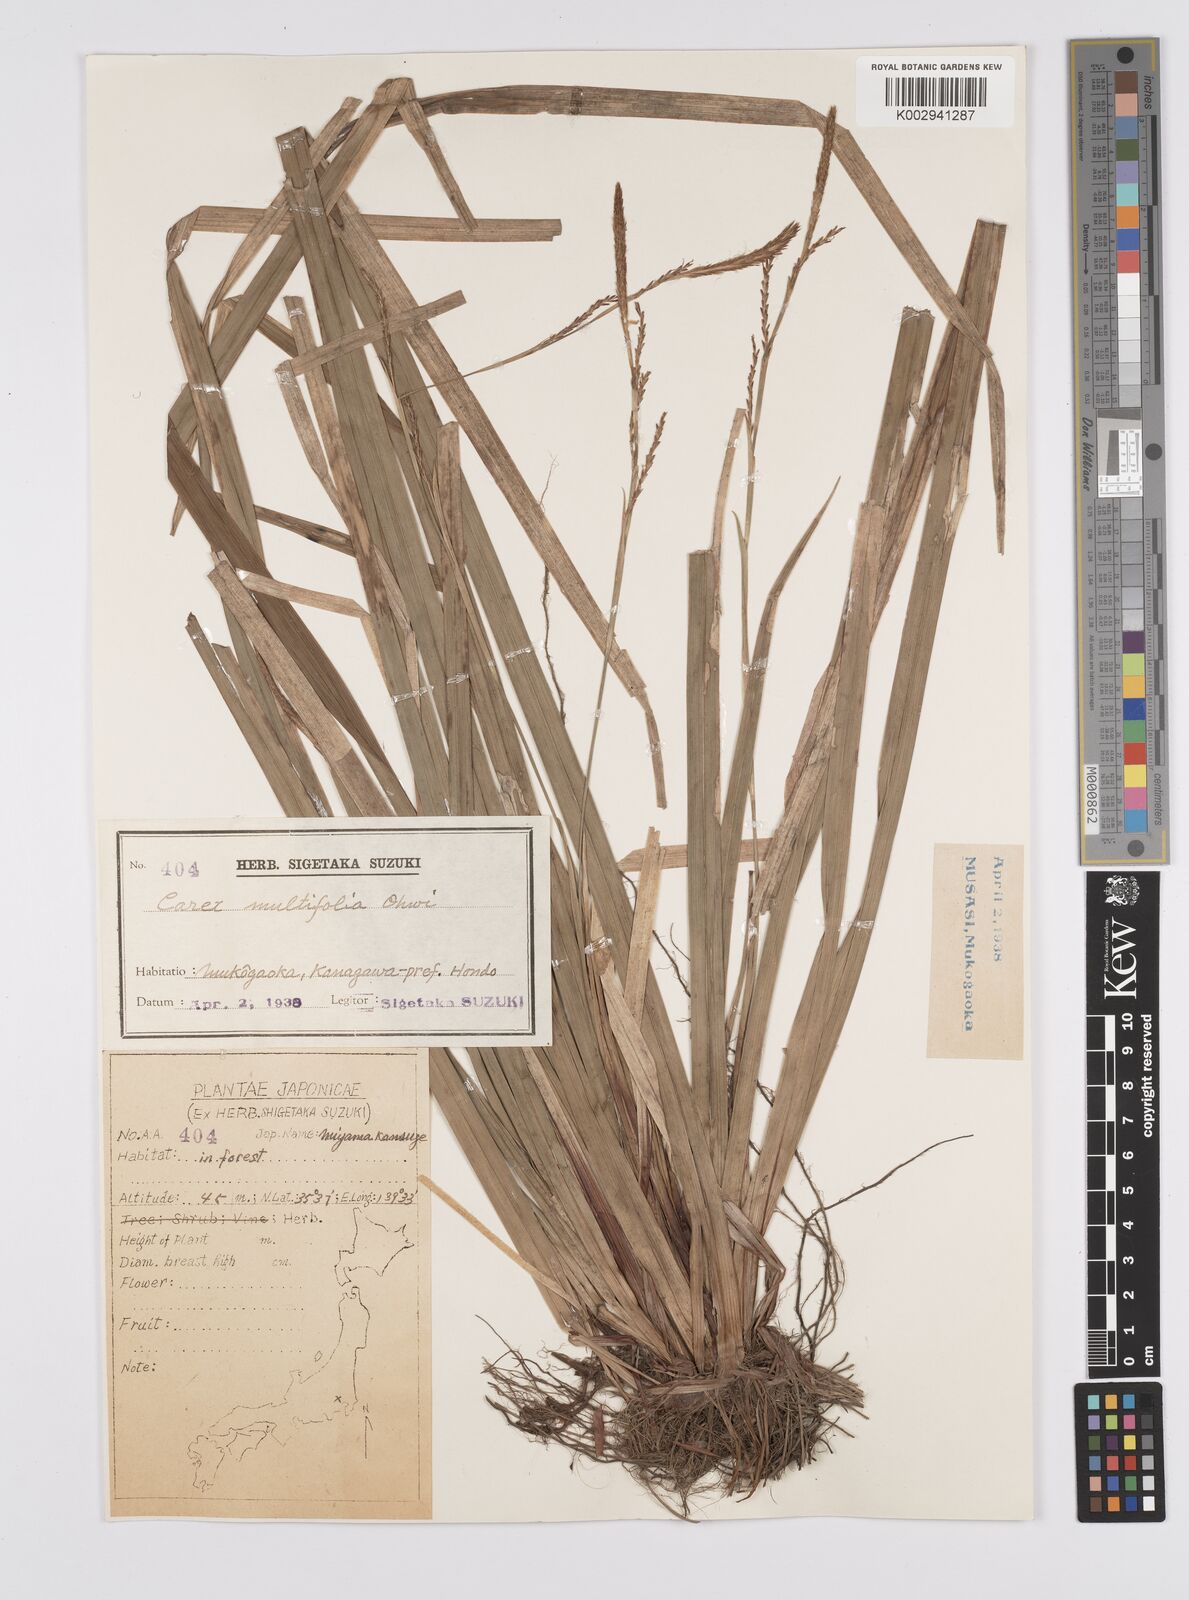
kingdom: Plantae
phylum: Tracheophyta
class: Liliopsida
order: Poales
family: Cyperaceae
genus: Carex
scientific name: Carex dolichostachya
